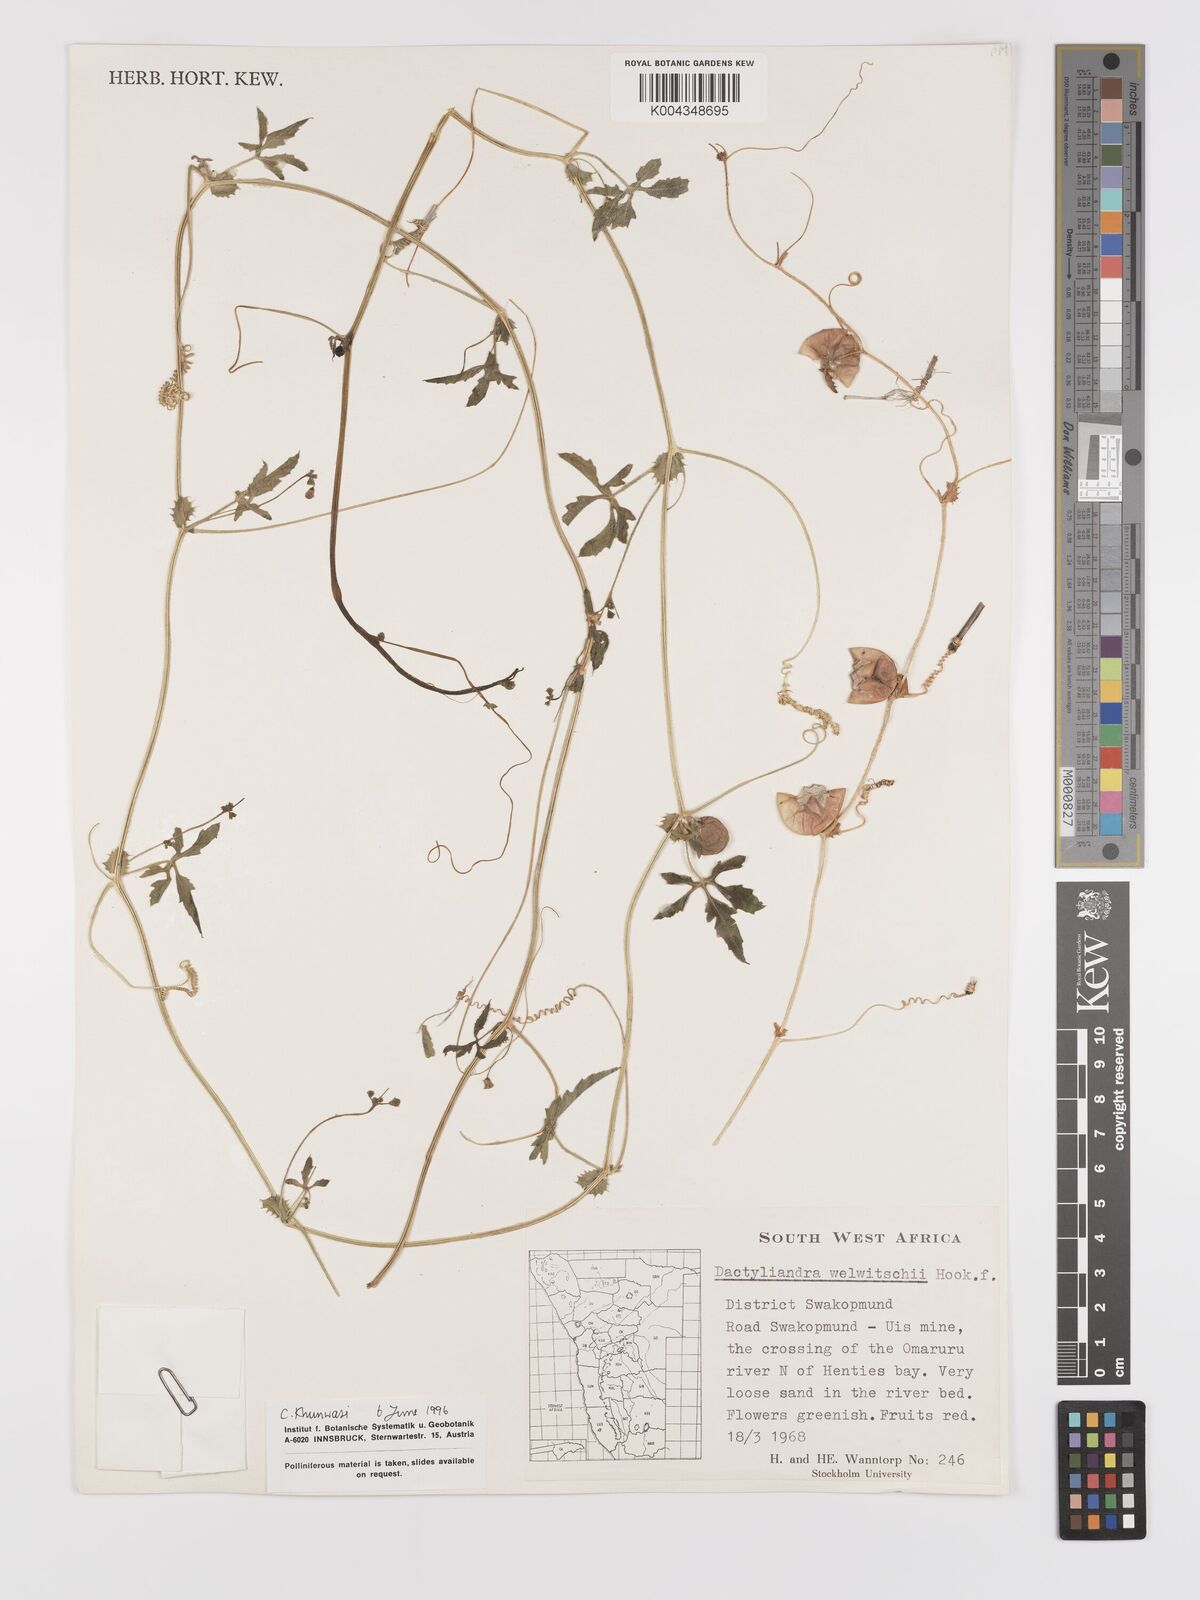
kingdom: Plantae
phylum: Tracheophyta
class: Magnoliopsida
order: Cucurbitales
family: Cucurbitaceae
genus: Dactyliandra
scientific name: Dactyliandra welwitschii
